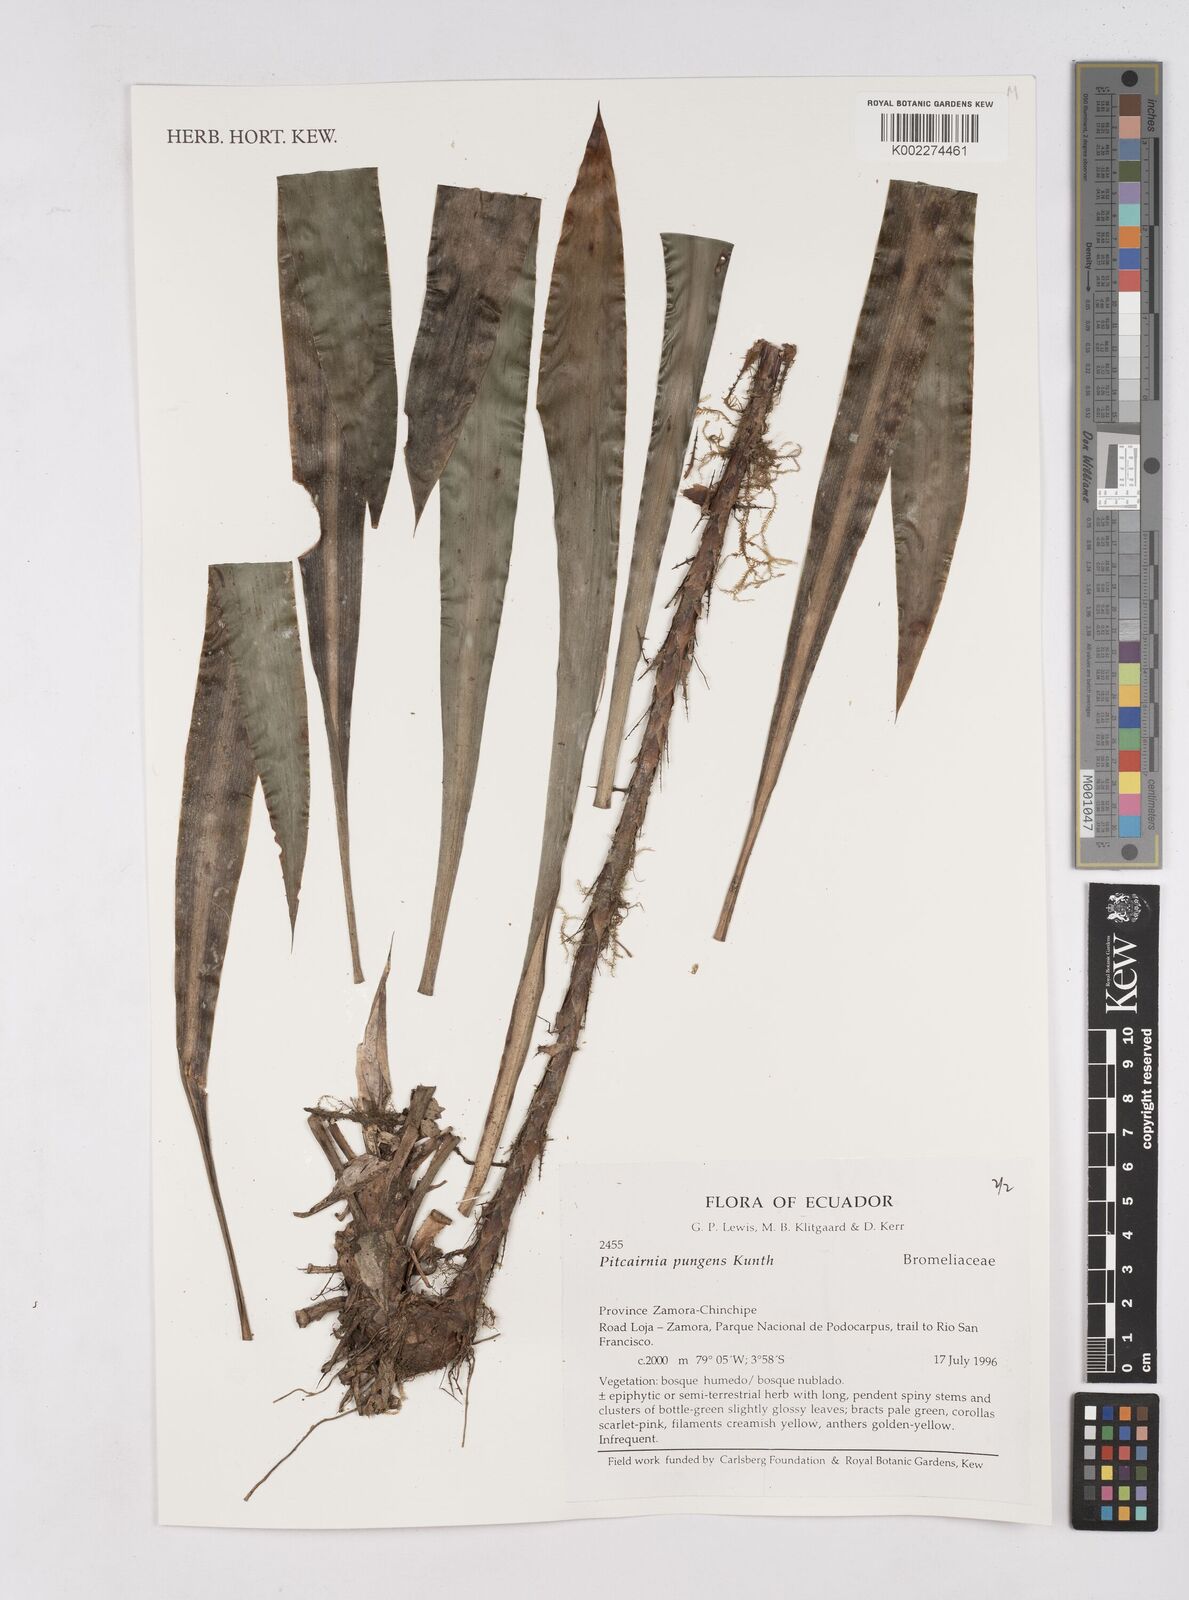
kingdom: Plantae
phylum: Tracheophyta
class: Liliopsida
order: Poales
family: Bromeliaceae
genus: Pitcairnia
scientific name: Pitcairnia pungens
